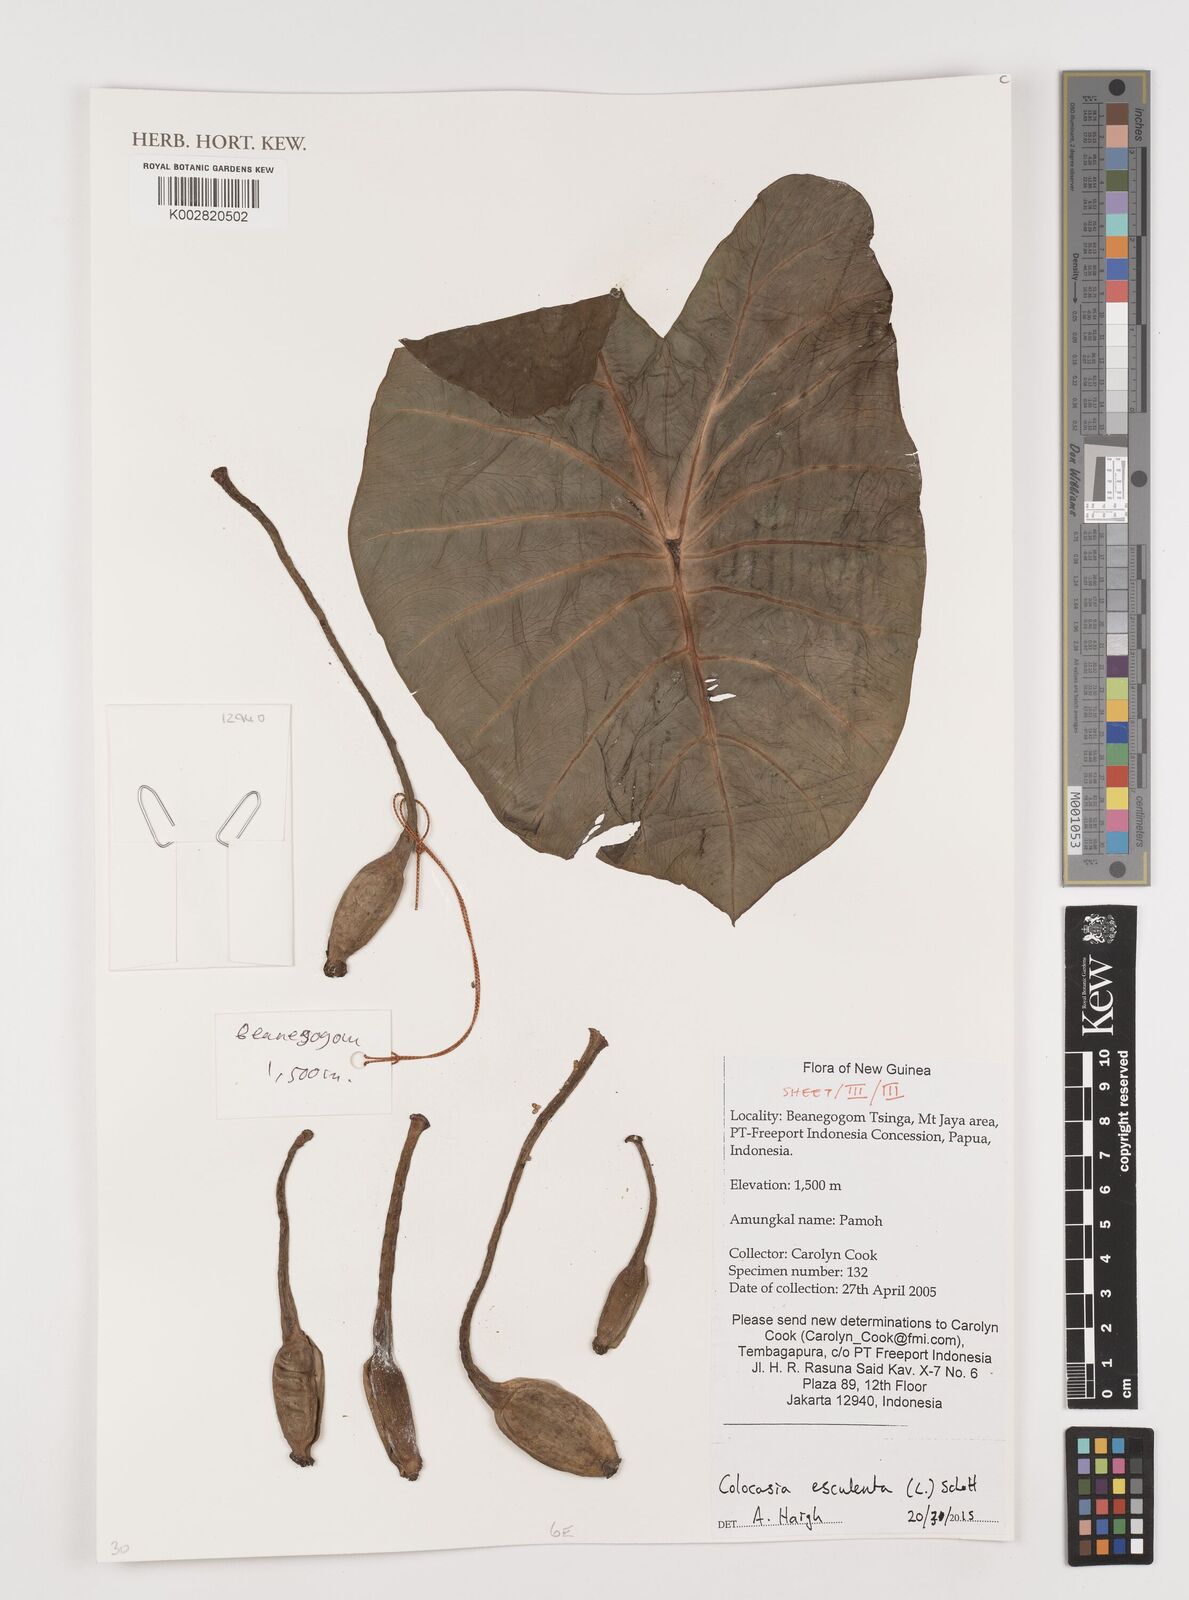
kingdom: Plantae
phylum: Tracheophyta
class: Liliopsida
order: Alismatales
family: Araceae
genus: Colocasia
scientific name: Colocasia esculenta
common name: Taro
